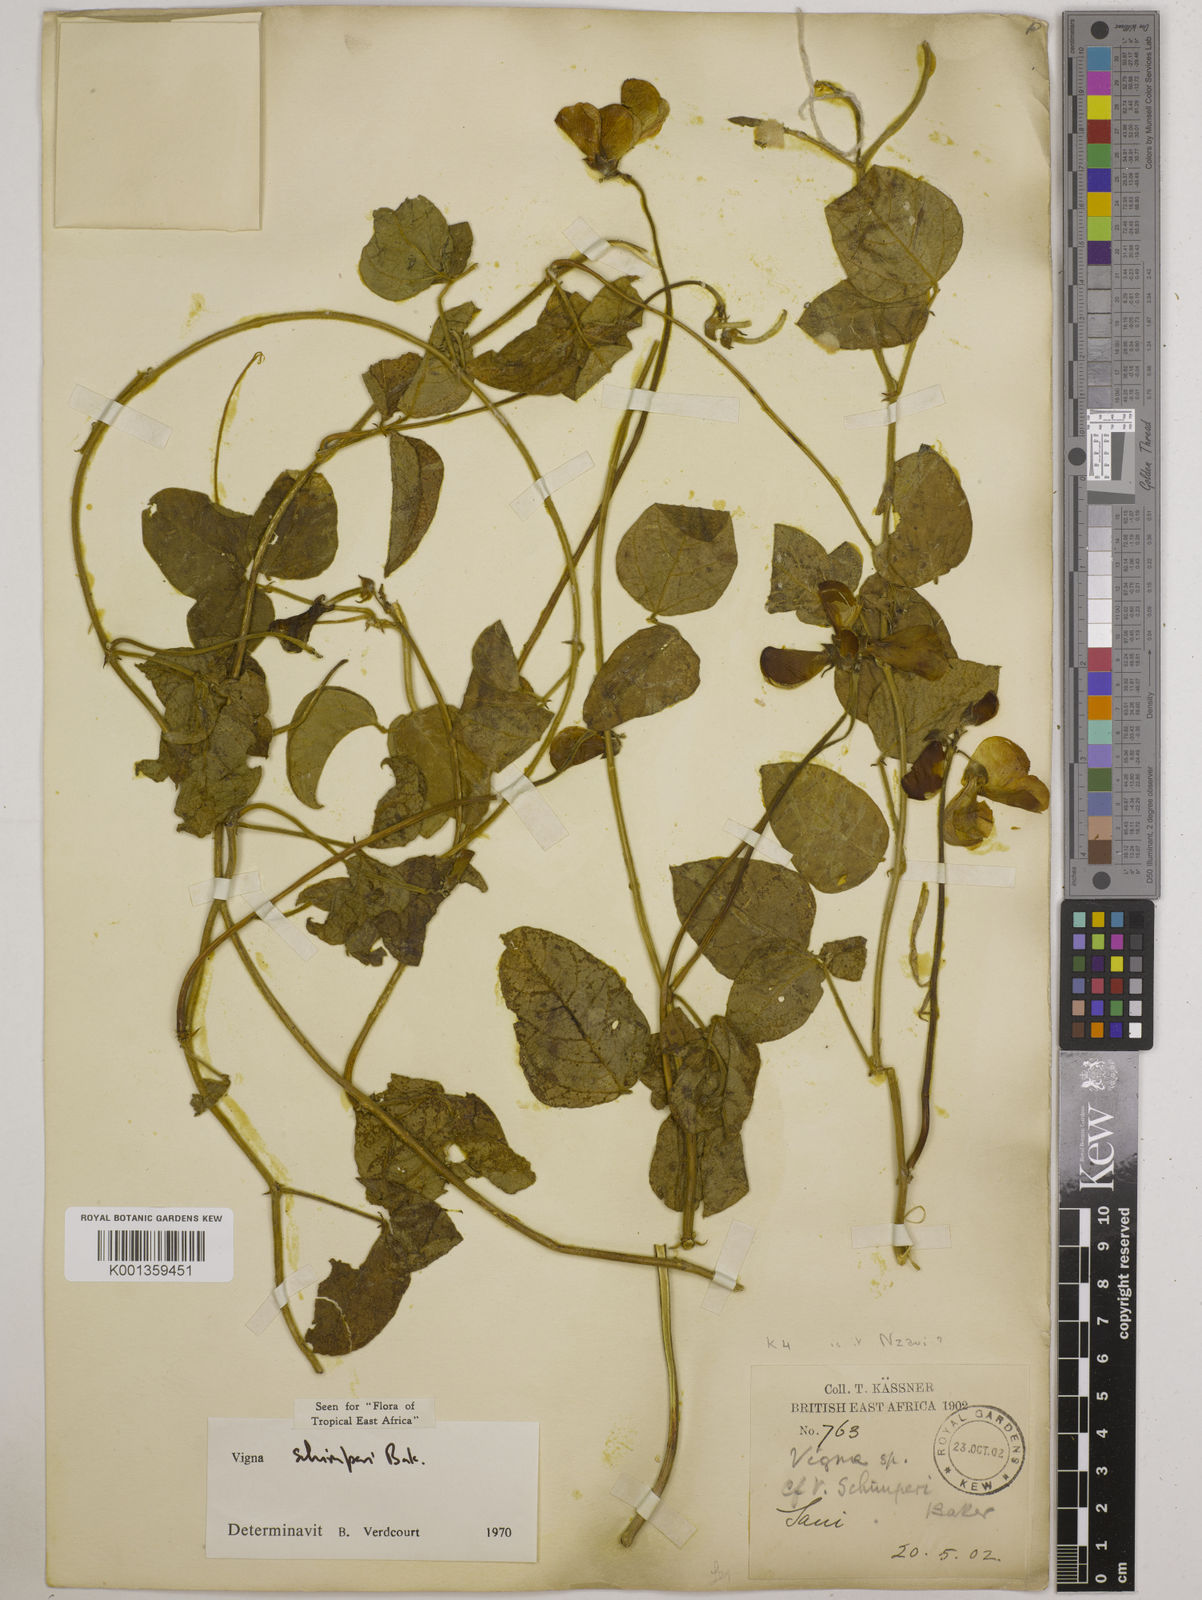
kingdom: Plantae
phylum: Tracheophyta
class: Magnoliopsida
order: Fabales
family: Fabaceae
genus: Vigna
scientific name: Vigna schimperi
